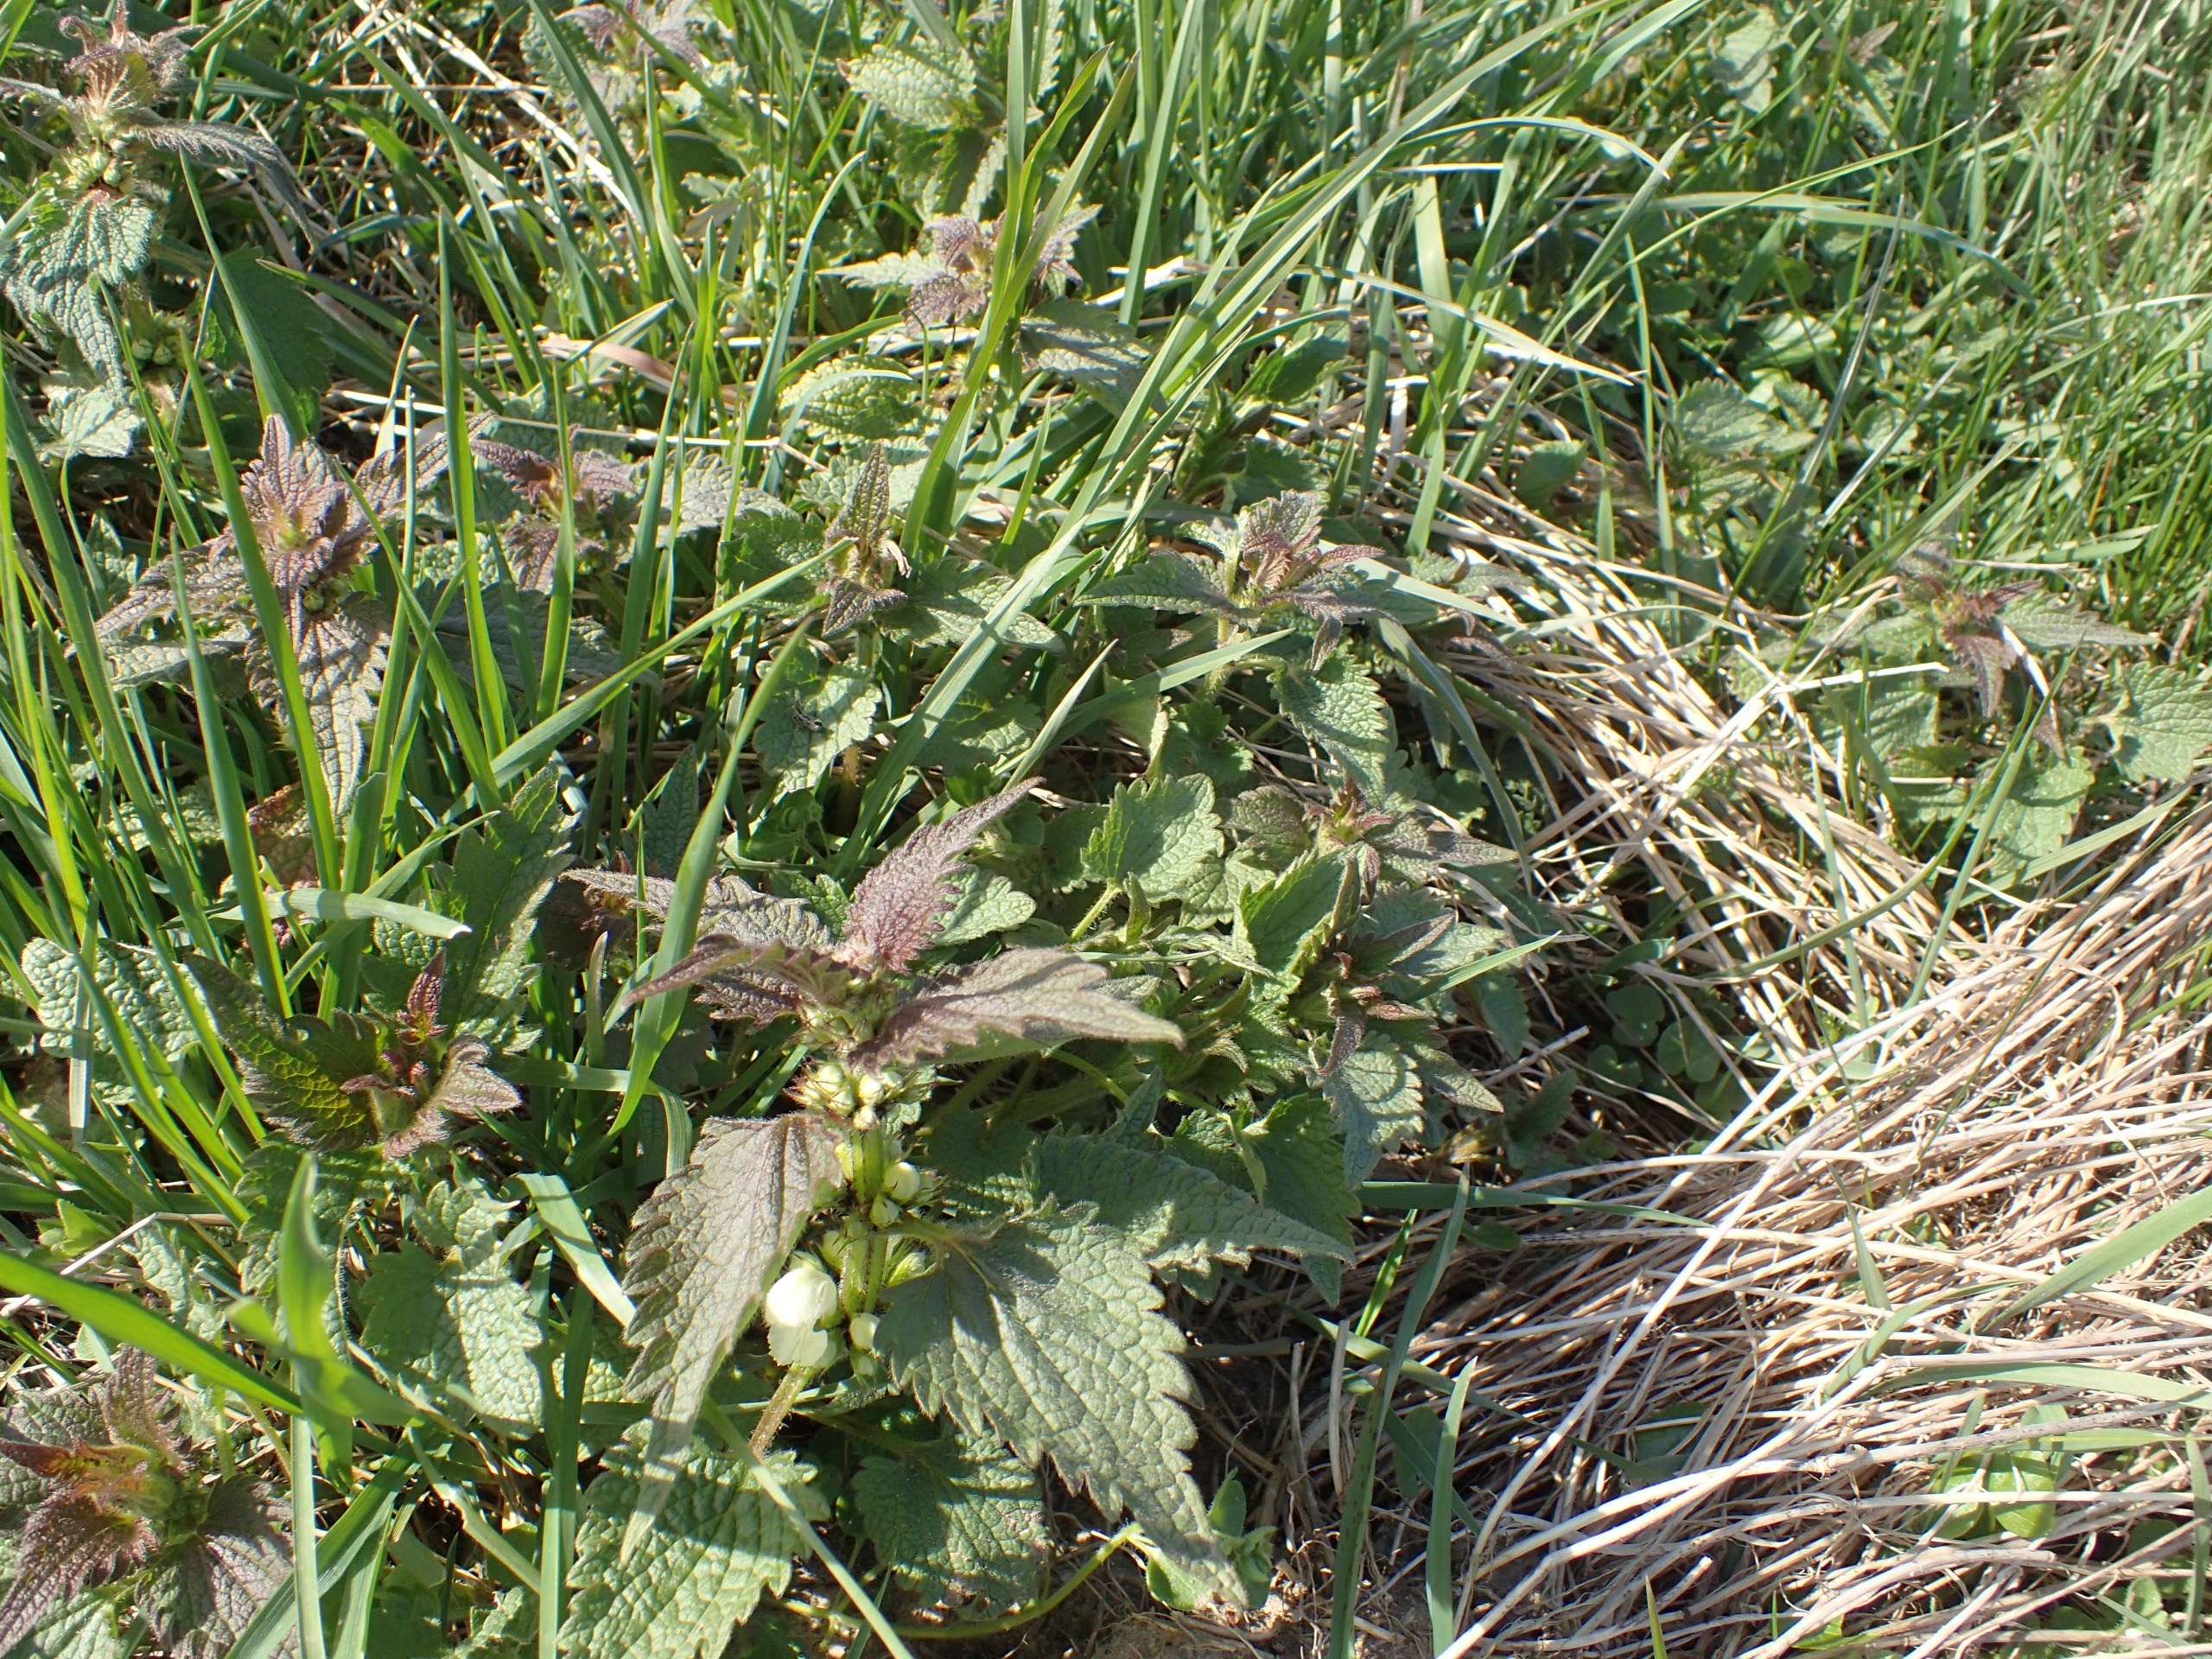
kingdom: Plantae
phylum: Tracheophyta
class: Magnoliopsida
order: Lamiales
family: Lamiaceae
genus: Lamium
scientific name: Lamium album
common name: Døvnælde
